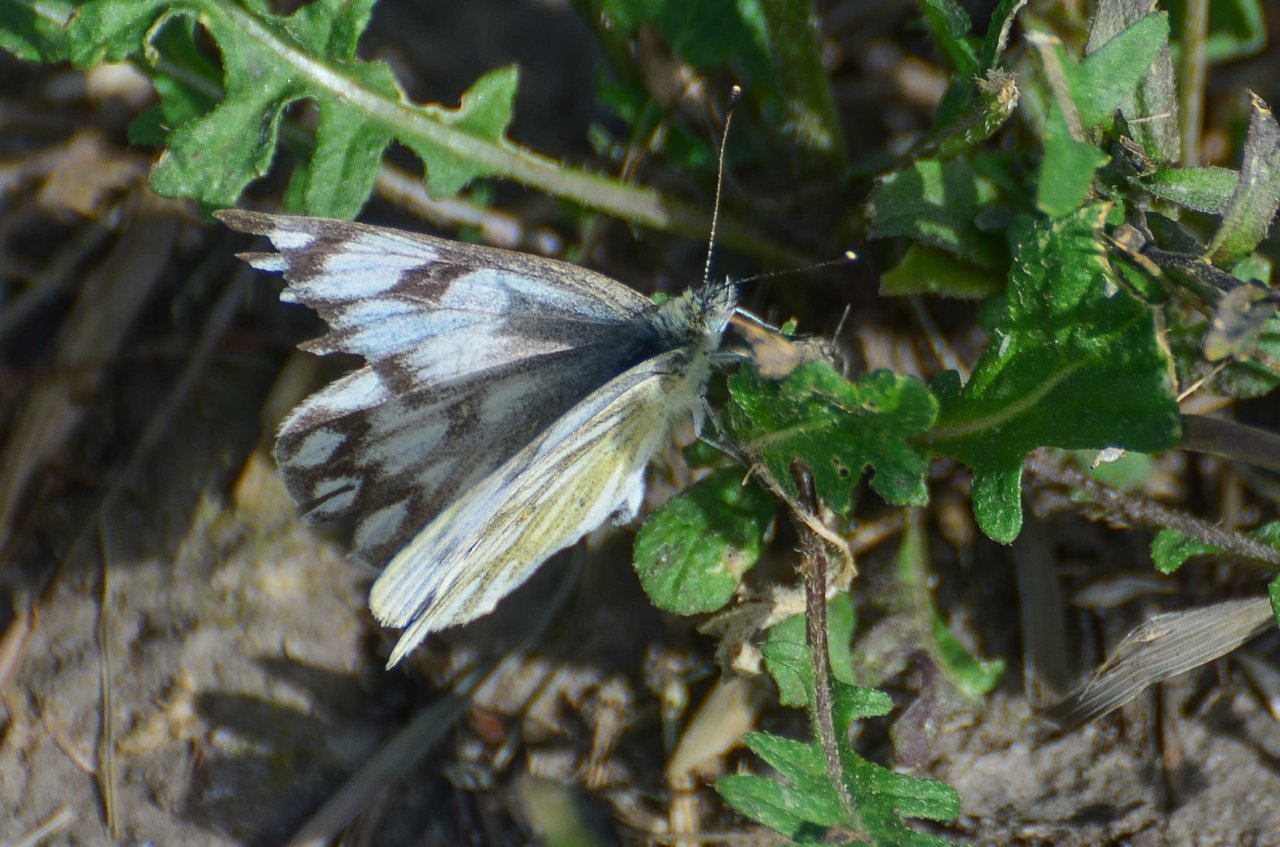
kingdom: Animalia
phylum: Arthropoda
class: Insecta
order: Lepidoptera
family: Pieridae
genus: Pontia
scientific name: Pontia occidentalis
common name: Western White
